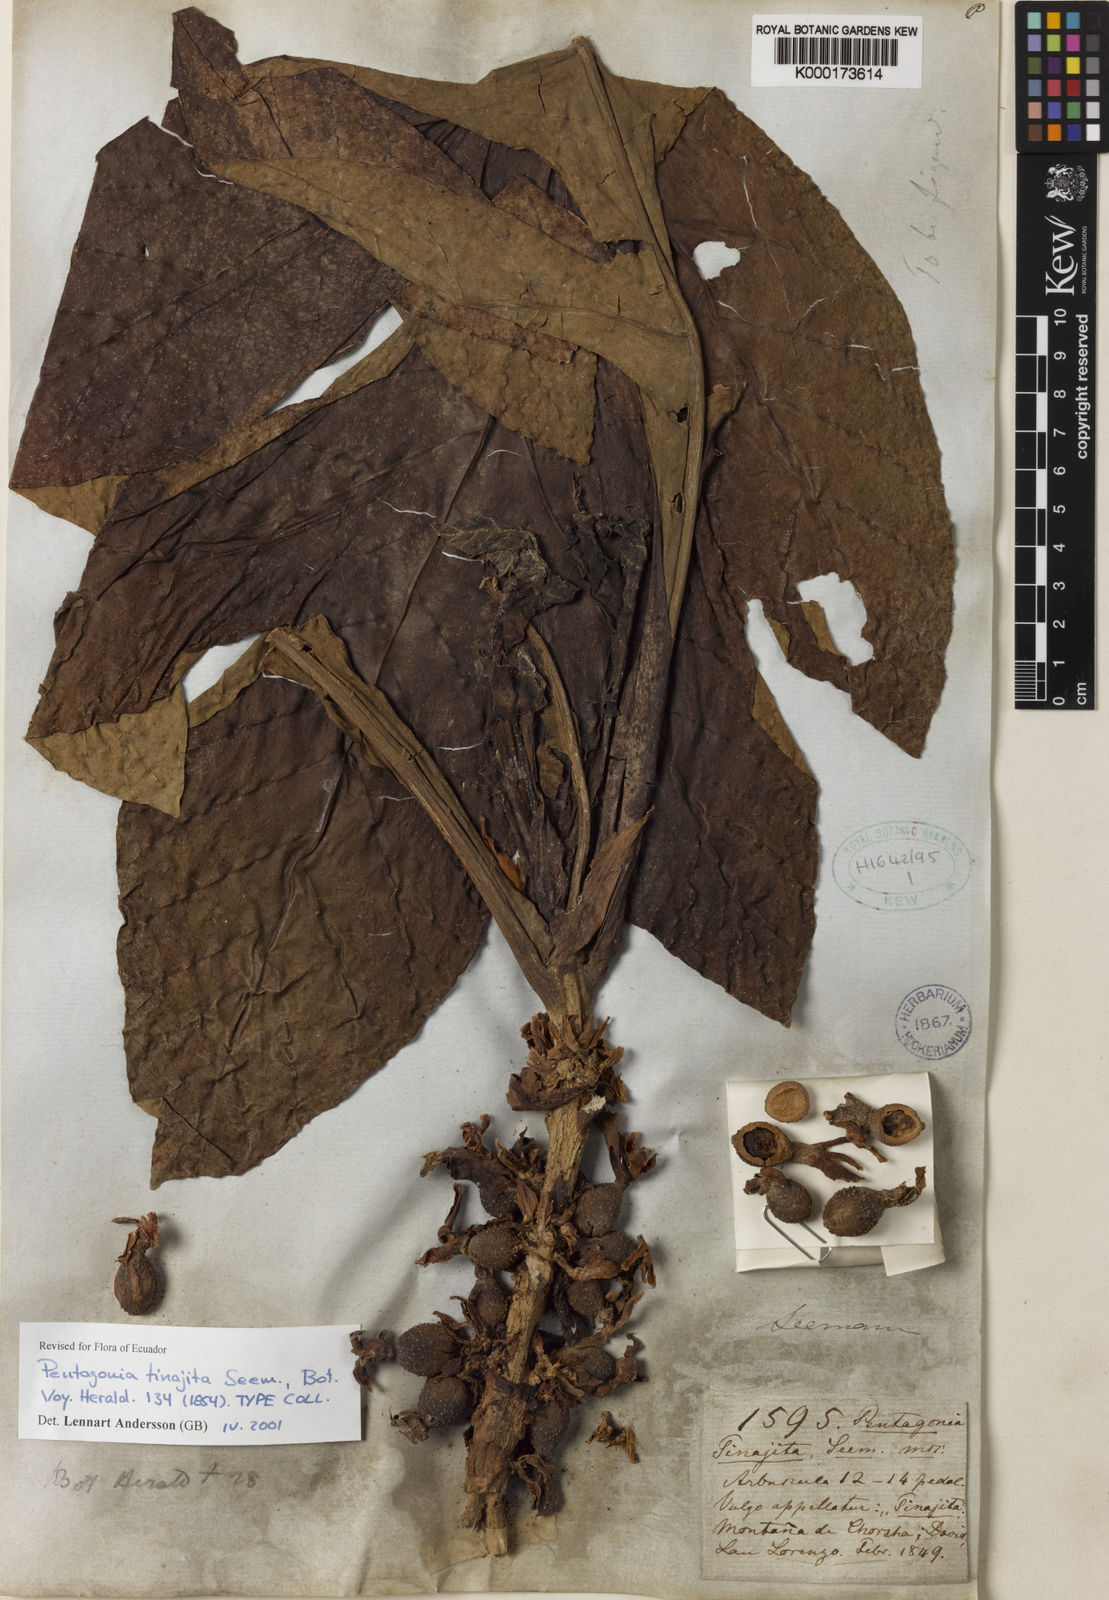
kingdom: Plantae
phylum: Tracheophyta
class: Magnoliopsida
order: Gentianales
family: Rubiaceae
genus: Pentagonia
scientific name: Pentagonia tinajita
